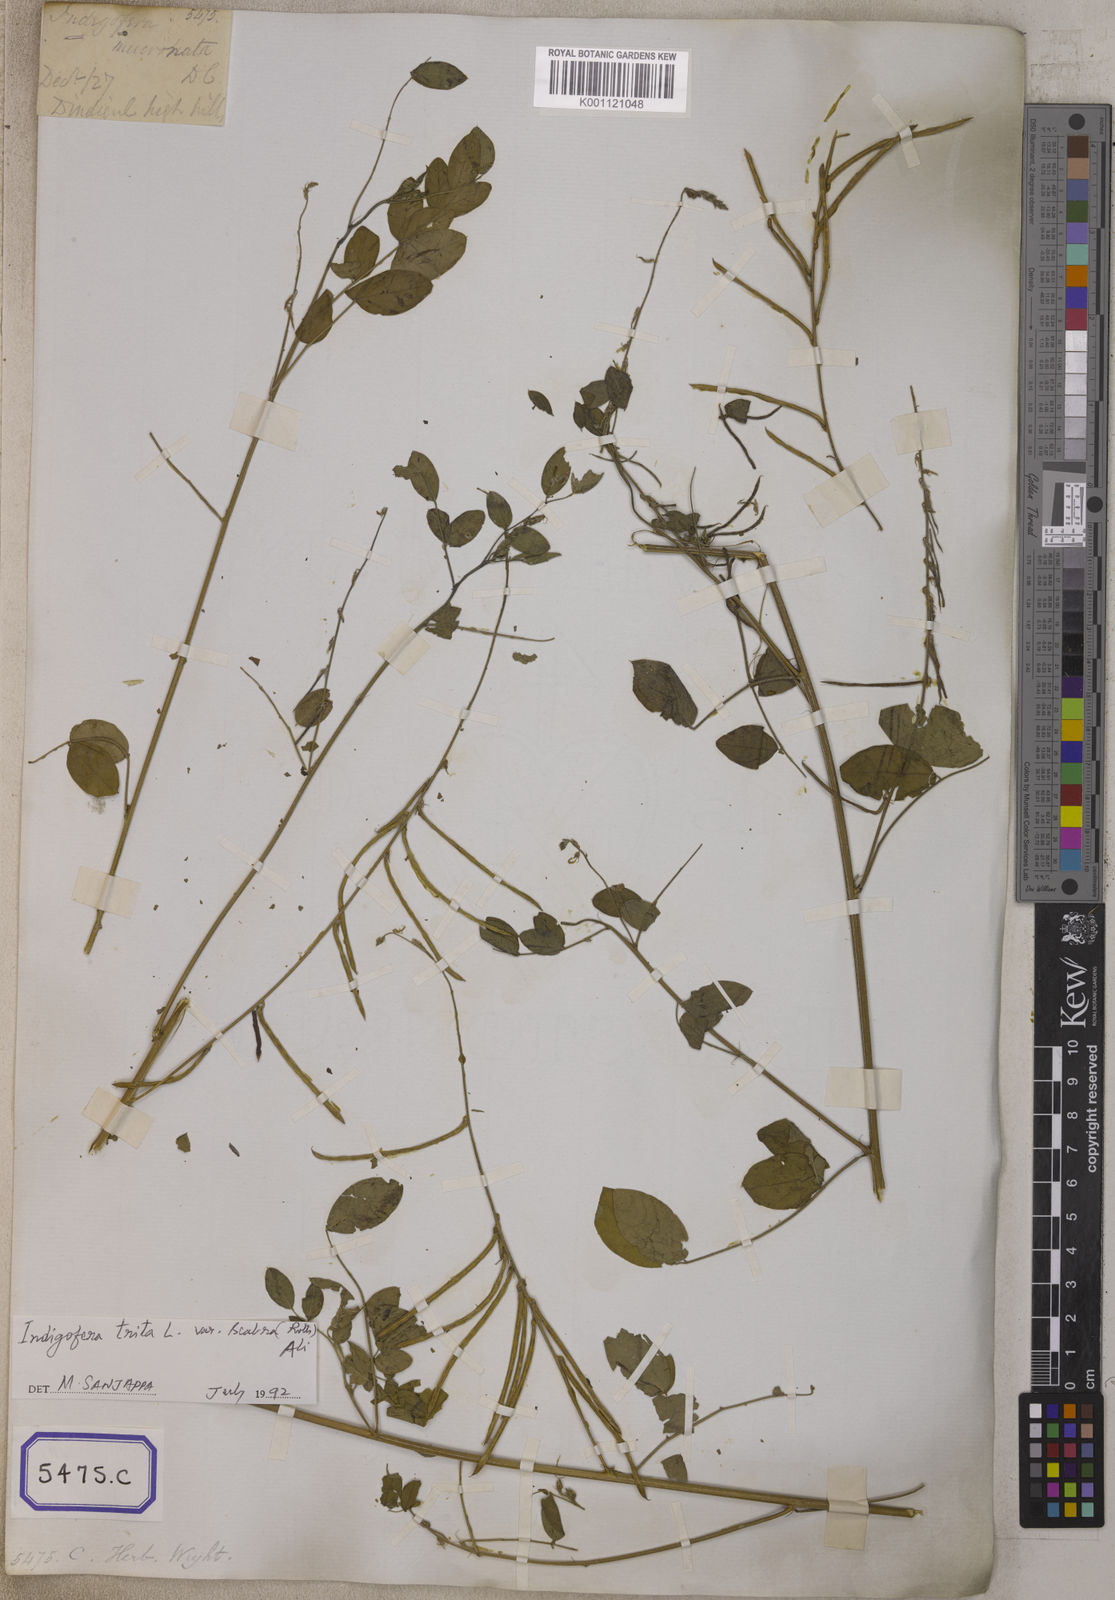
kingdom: Plantae
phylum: Tracheophyta
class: Magnoliopsida
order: Fabales
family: Fabaceae
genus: Indigofera
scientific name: Indigofera subulata
